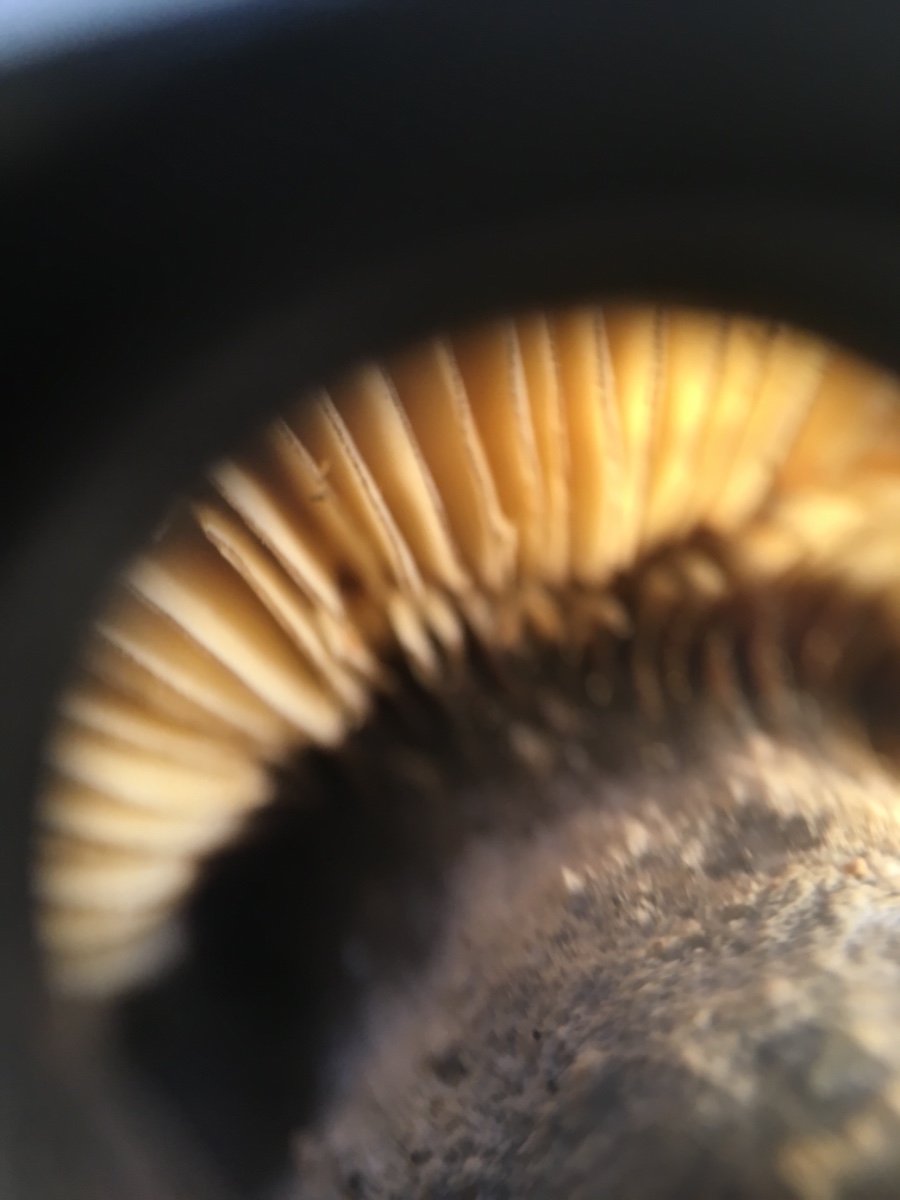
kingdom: Fungi
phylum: Basidiomycota
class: Agaricomycetes
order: Russulales
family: Russulaceae
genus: Lactarius
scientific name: Lactarius lignyotus
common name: fløjls-mælkehat
